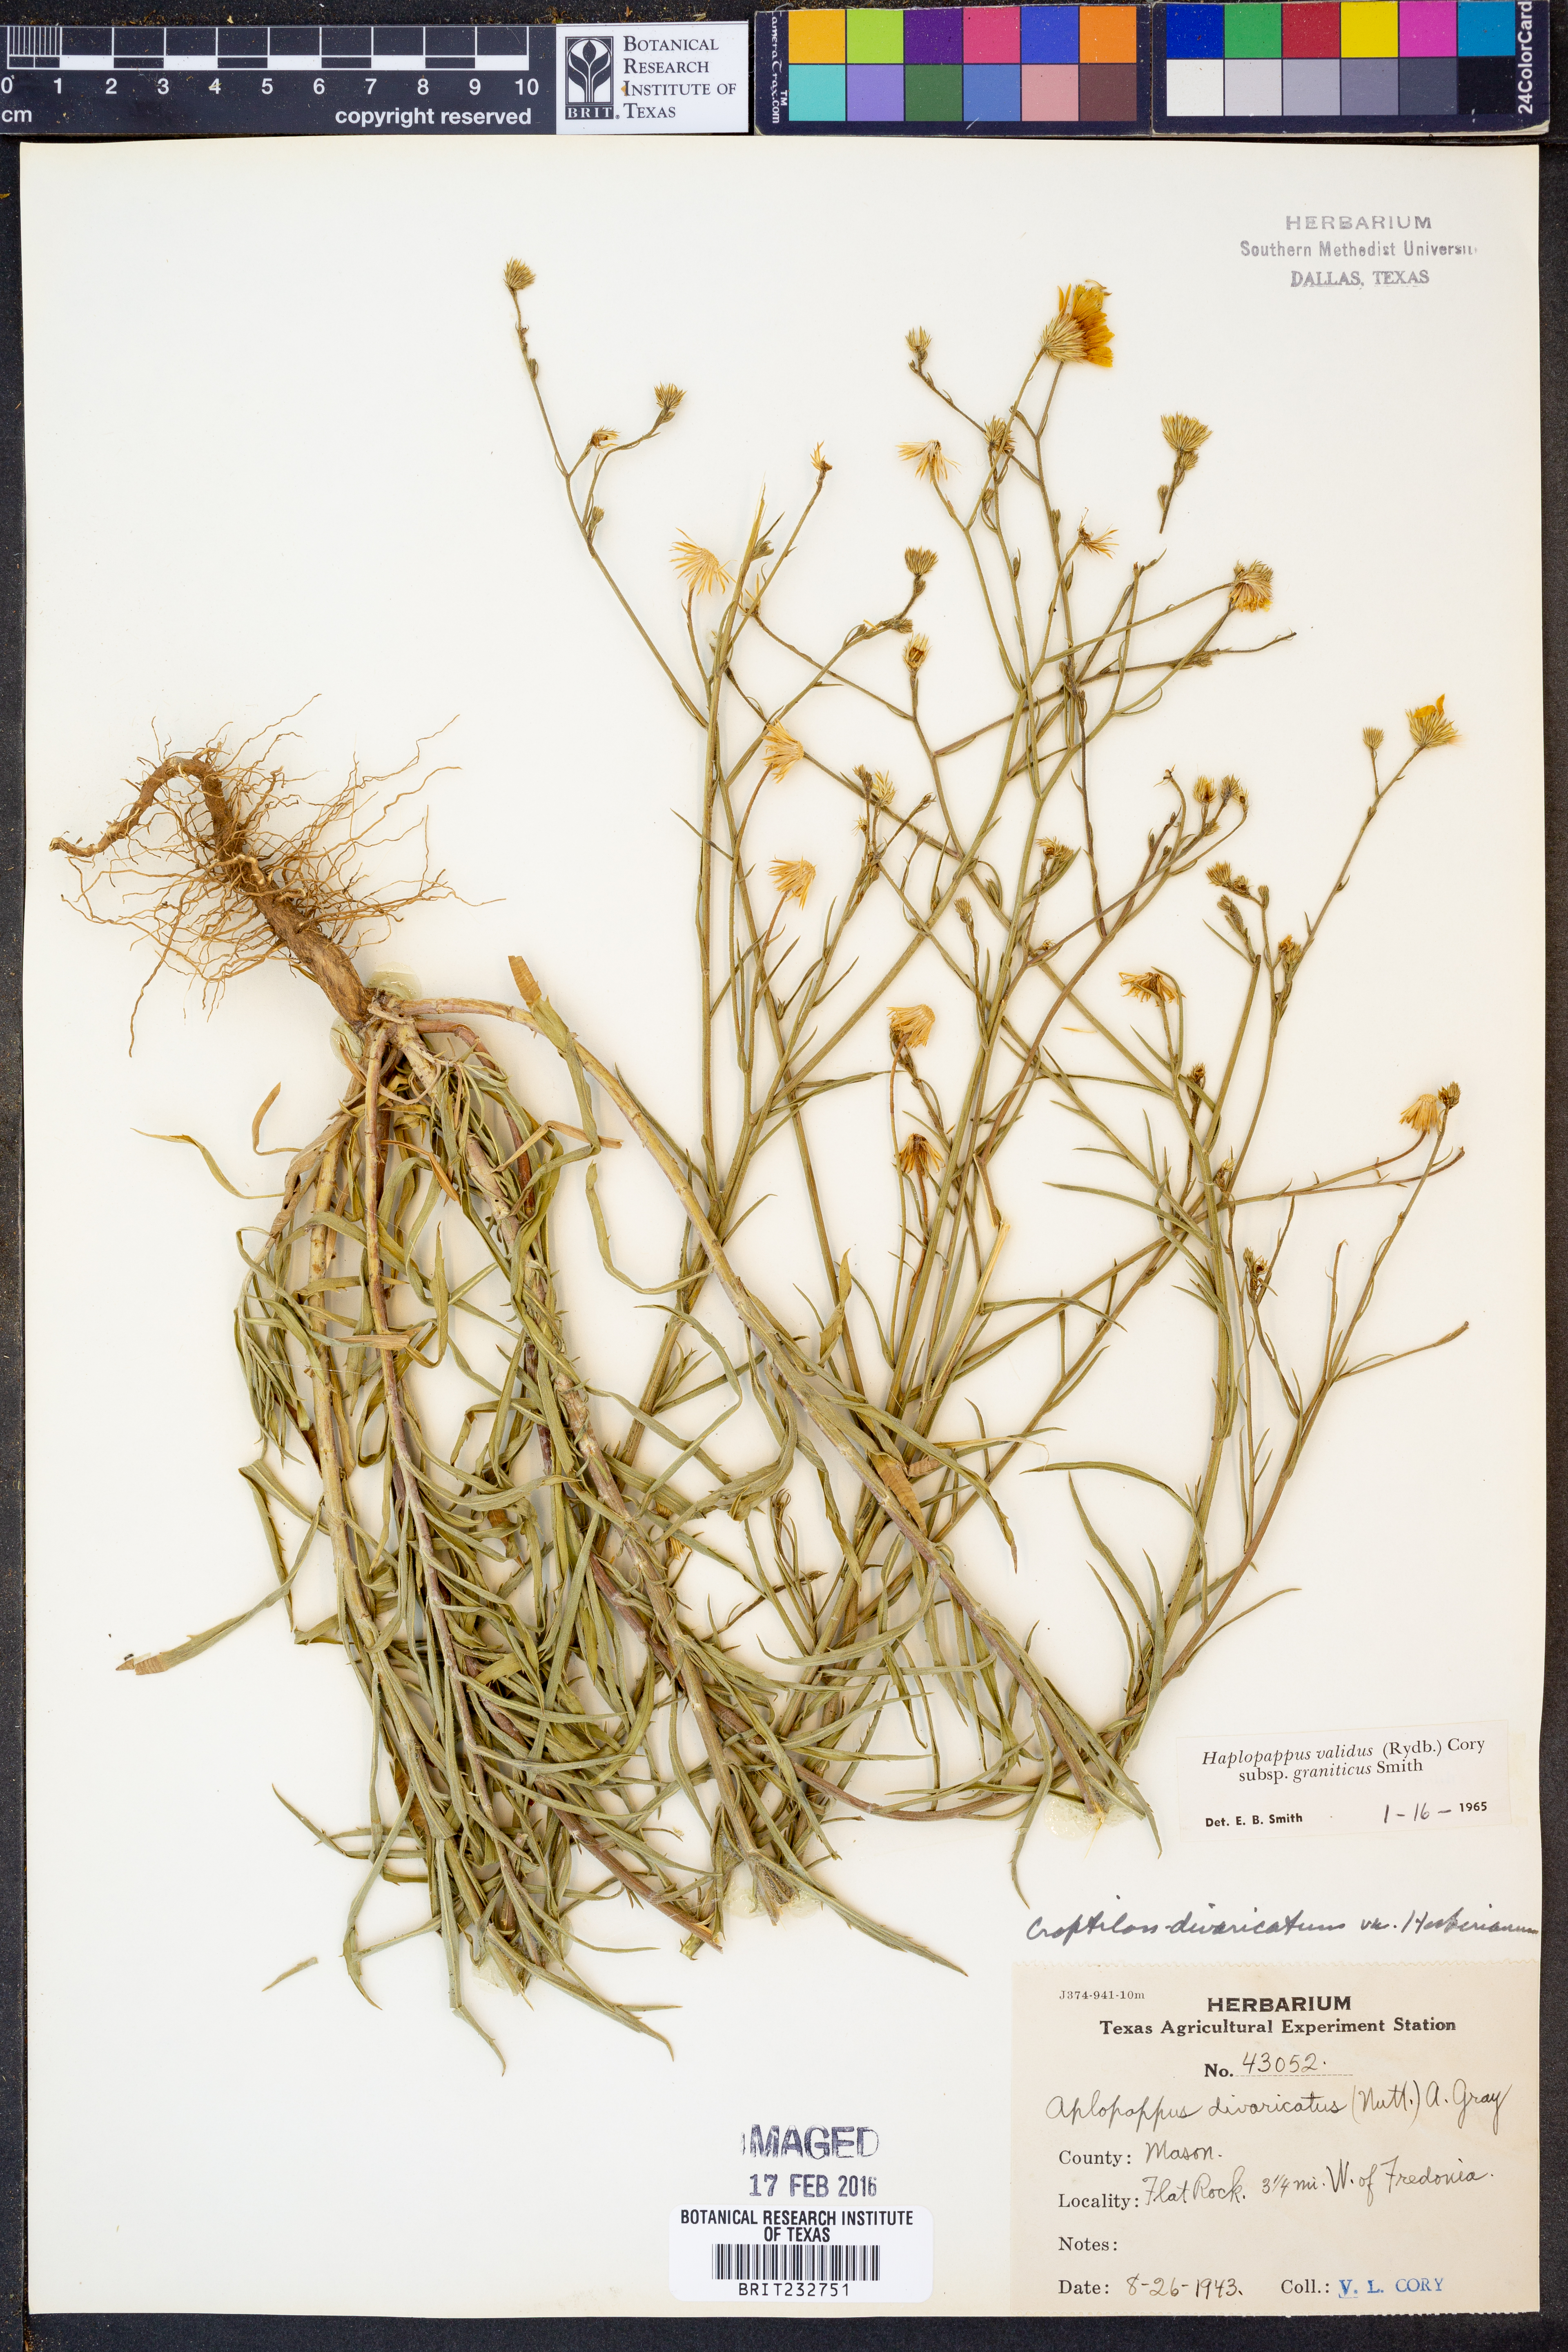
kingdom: Plantae
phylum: Tracheophyta
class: Magnoliopsida
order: Asterales
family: Asteraceae
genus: Croptilon
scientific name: Croptilon hookerianum
